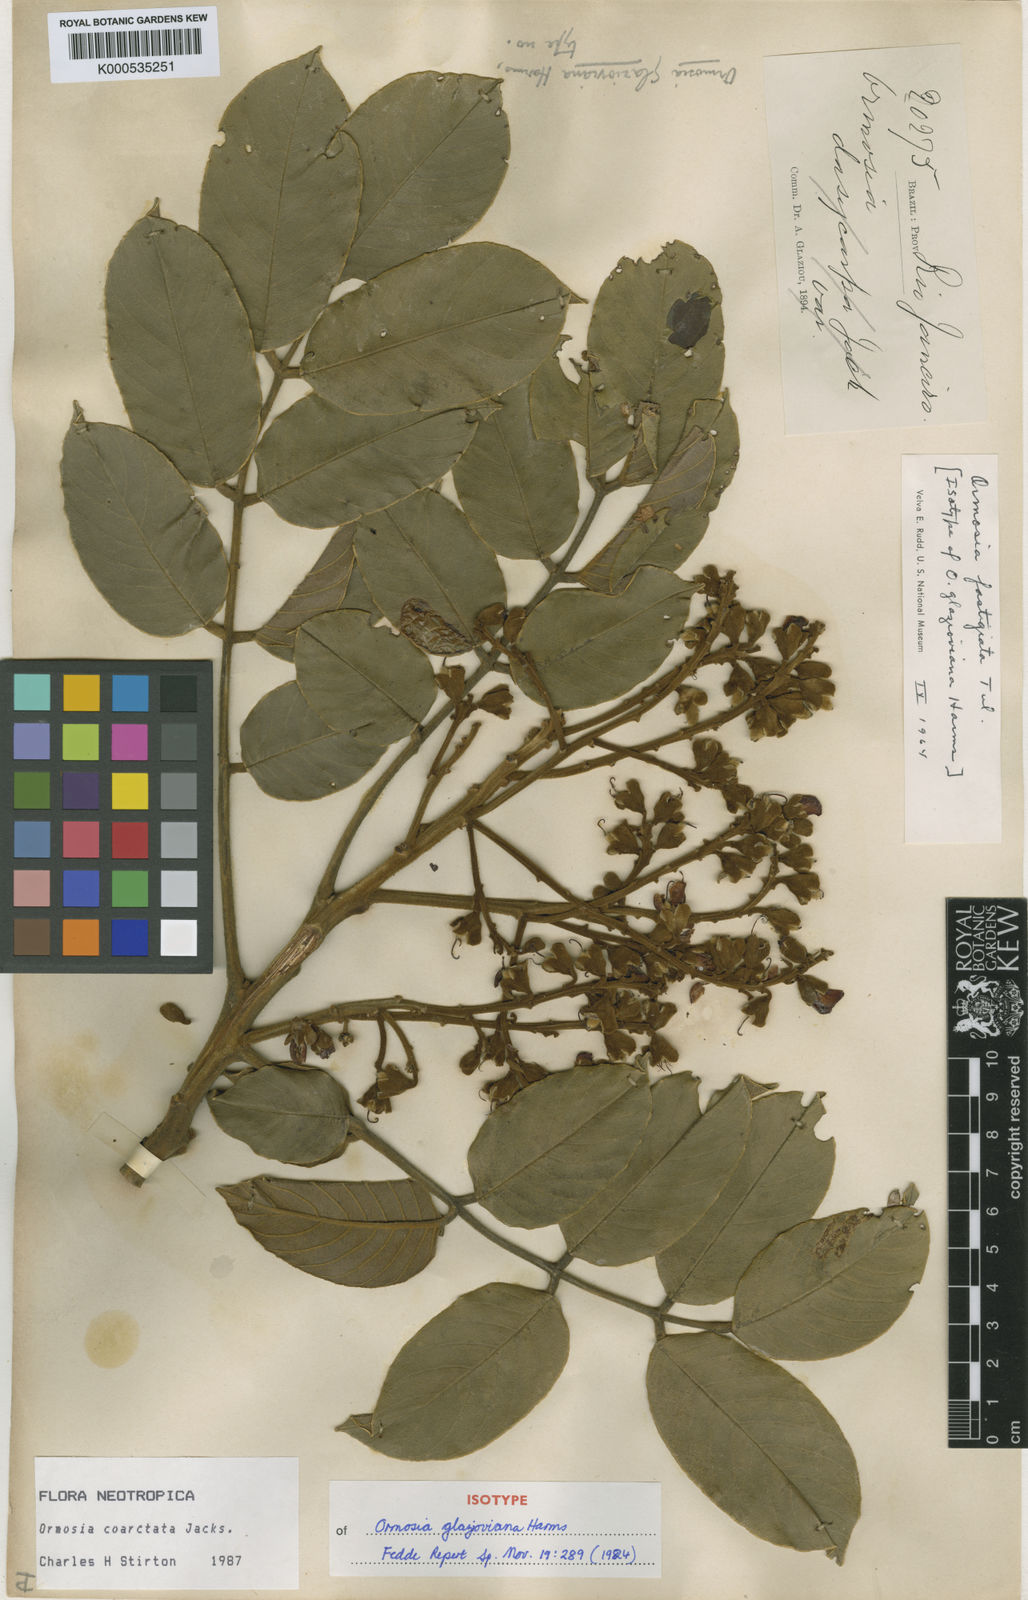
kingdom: Plantae
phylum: Tracheophyta
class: Magnoliopsida
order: Fabales
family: Fabaceae
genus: Ormosia
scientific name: Ormosia fastigiata
